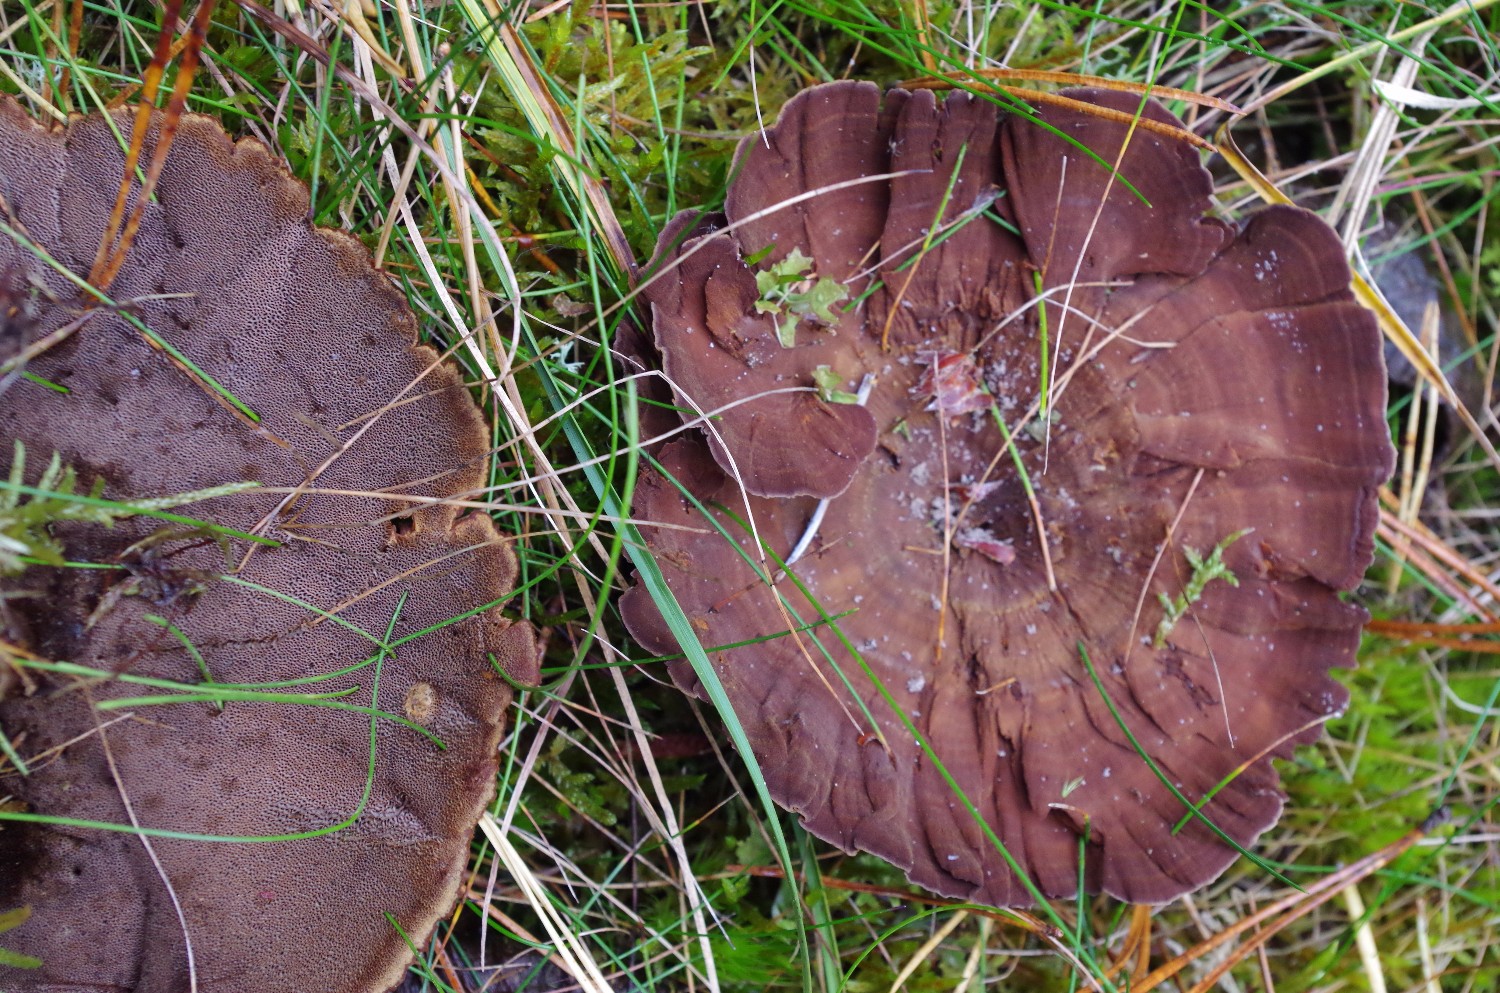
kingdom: Fungi
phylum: Basidiomycota
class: Agaricomycetes
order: Hymenochaetales
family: Hymenochaetaceae
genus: Coltricia
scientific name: Coltricia perennis
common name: almindelig sandporesvamp
